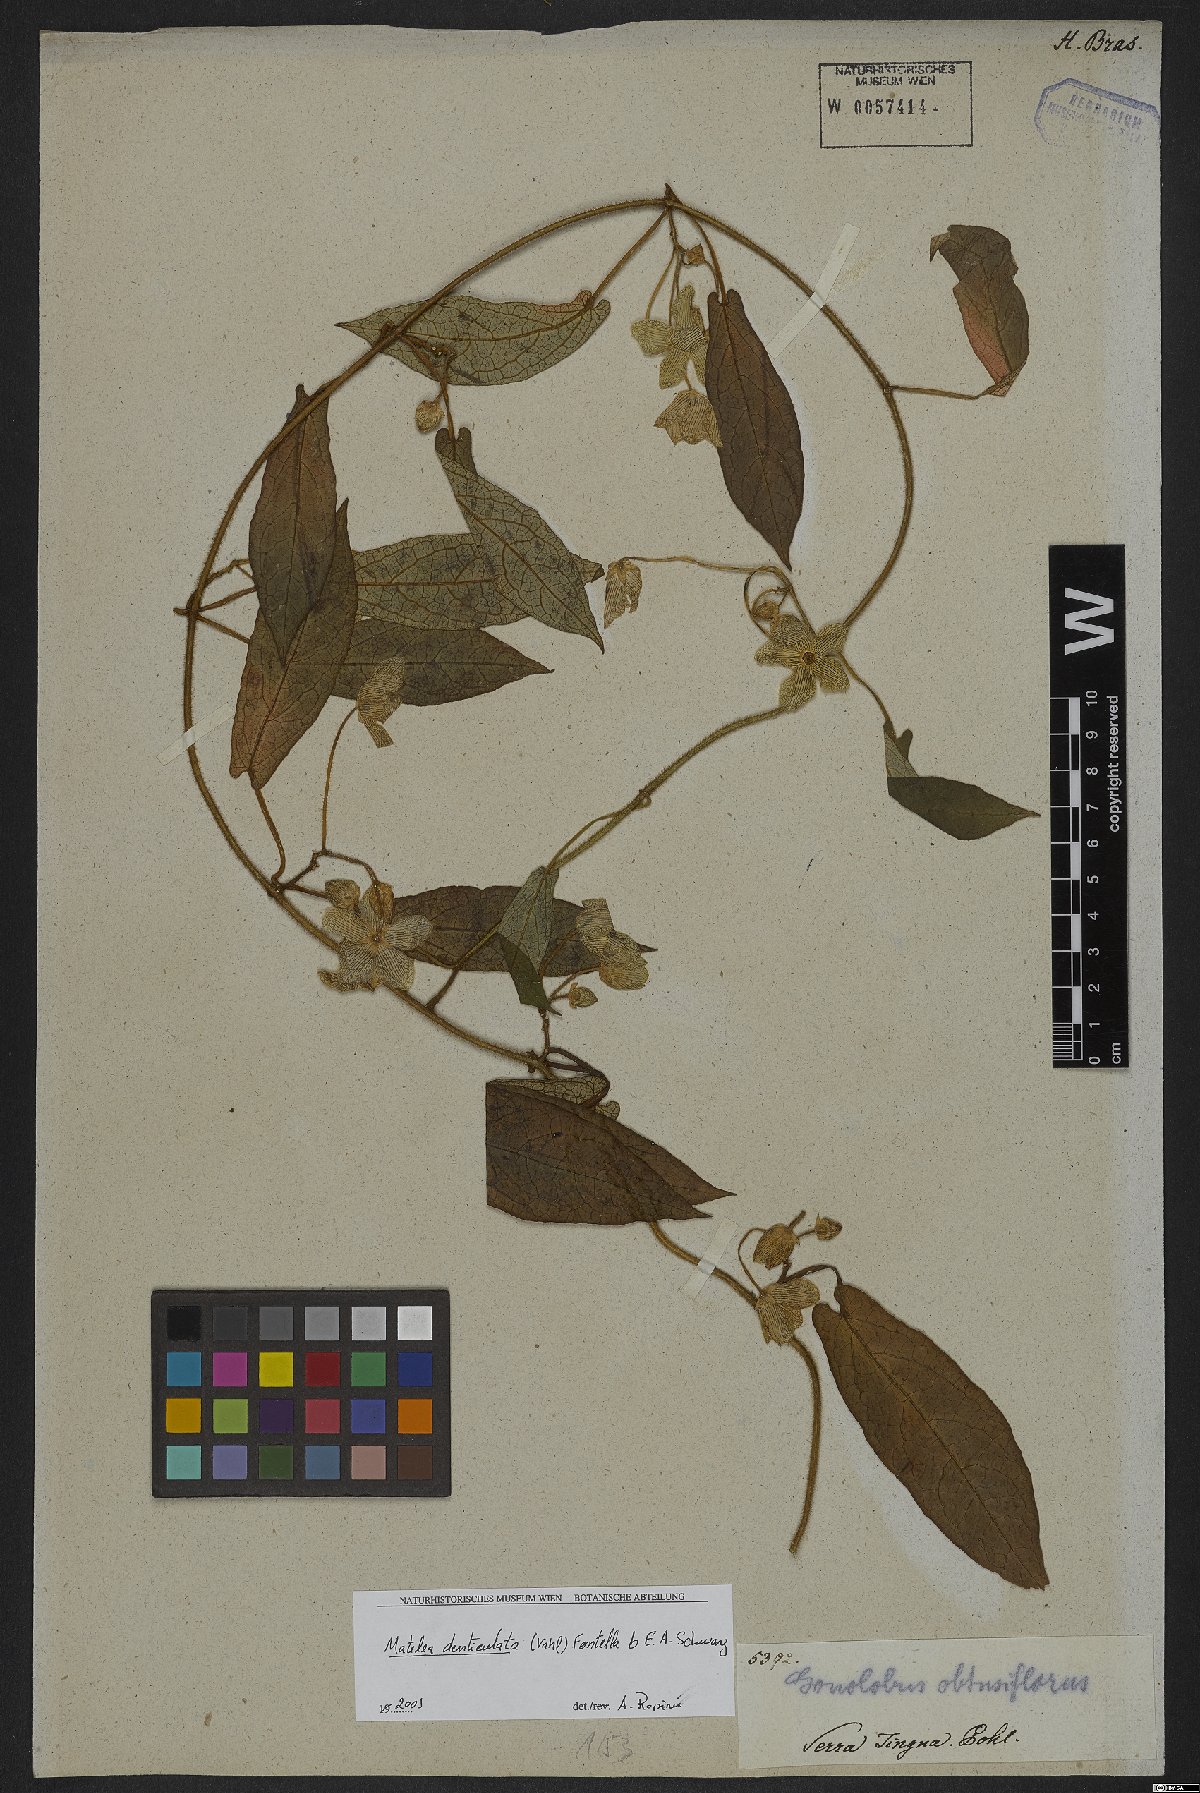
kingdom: Plantae
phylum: Tracheophyta
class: Magnoliopsida
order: Gentianales
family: Apocynaceae
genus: Chloropetalum
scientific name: Chloropetalum denticulatum
